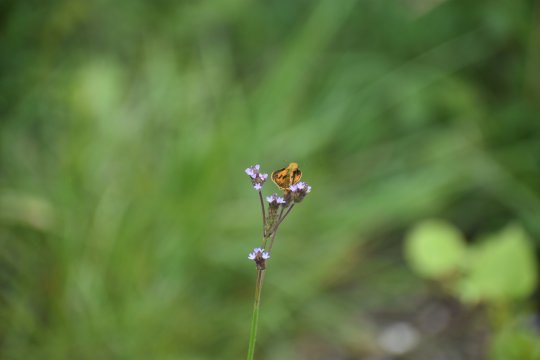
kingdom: Animalia
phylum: Arthropoda
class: Insecta
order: Lepidoptera
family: Hesperiidae
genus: Hylephila
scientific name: Hylephila phyleus
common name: Fiery Skipper
